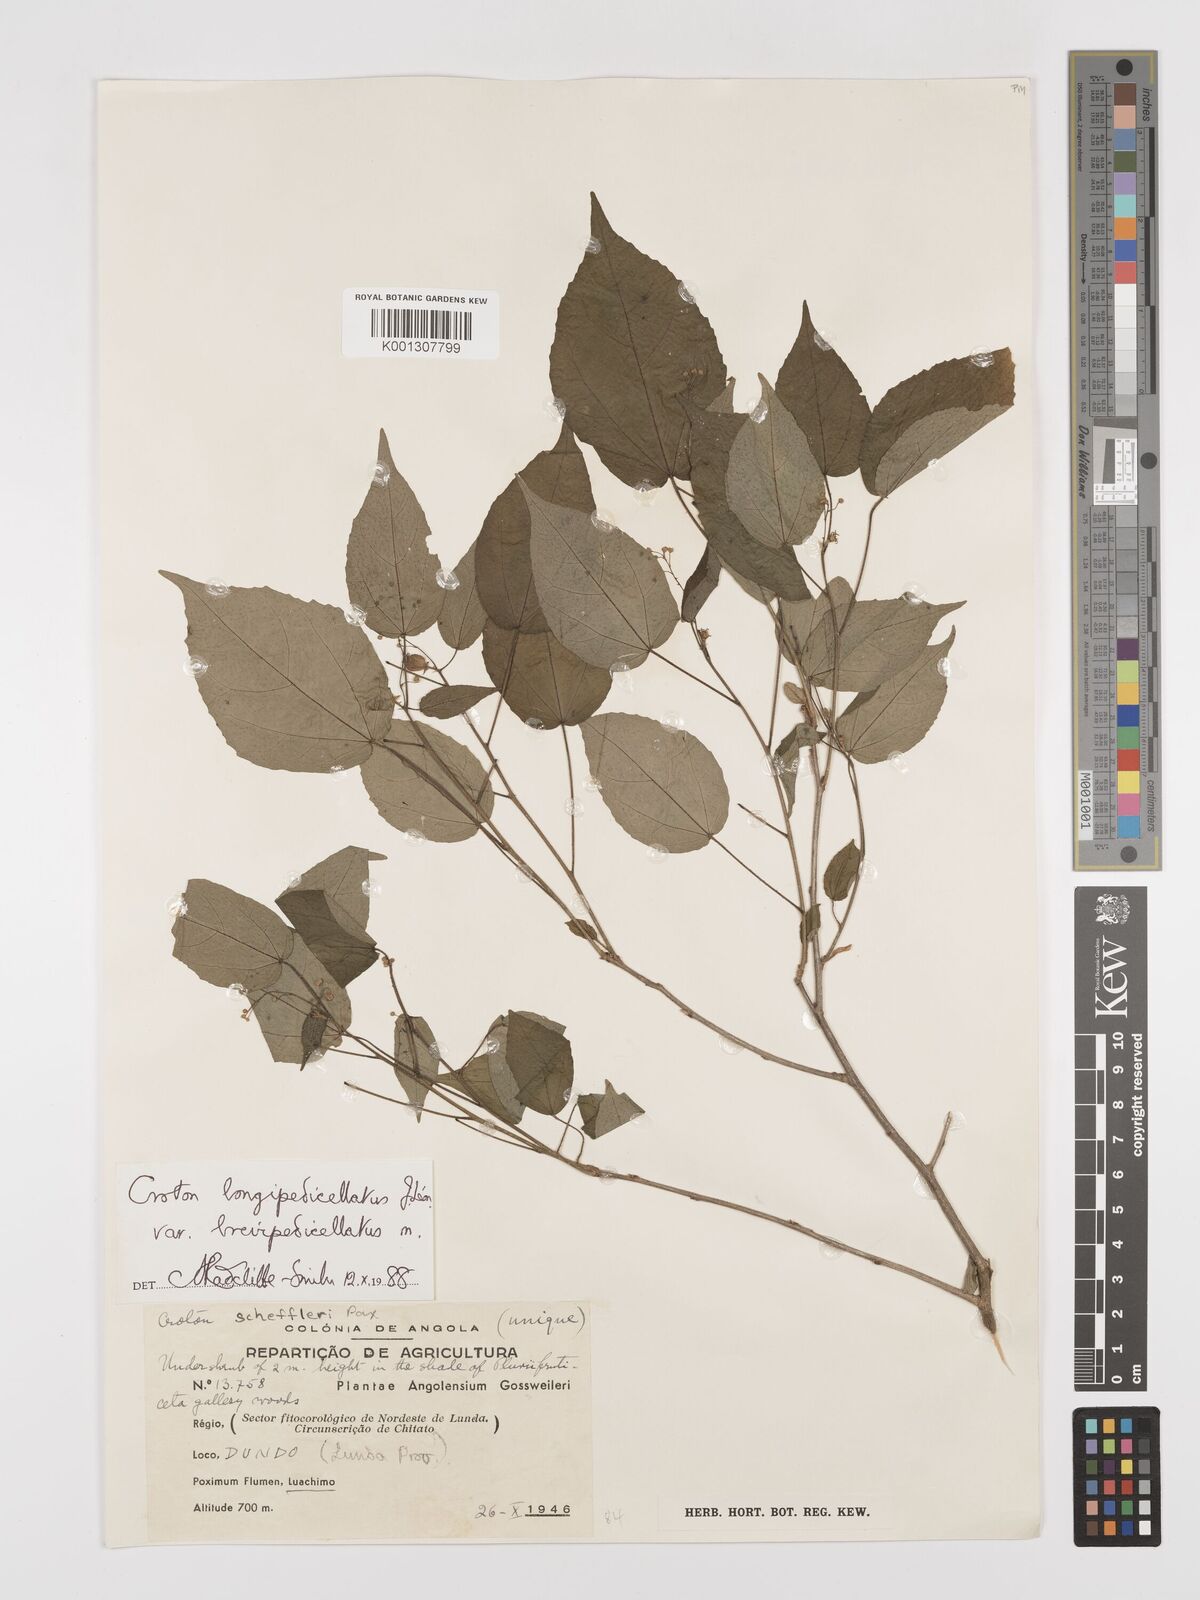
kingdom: Plantae
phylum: Tracheophyta
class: Magnoliopsida
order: Malpighiales
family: Euphorbiaceae
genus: Croton
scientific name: Croton longipedicellatus
